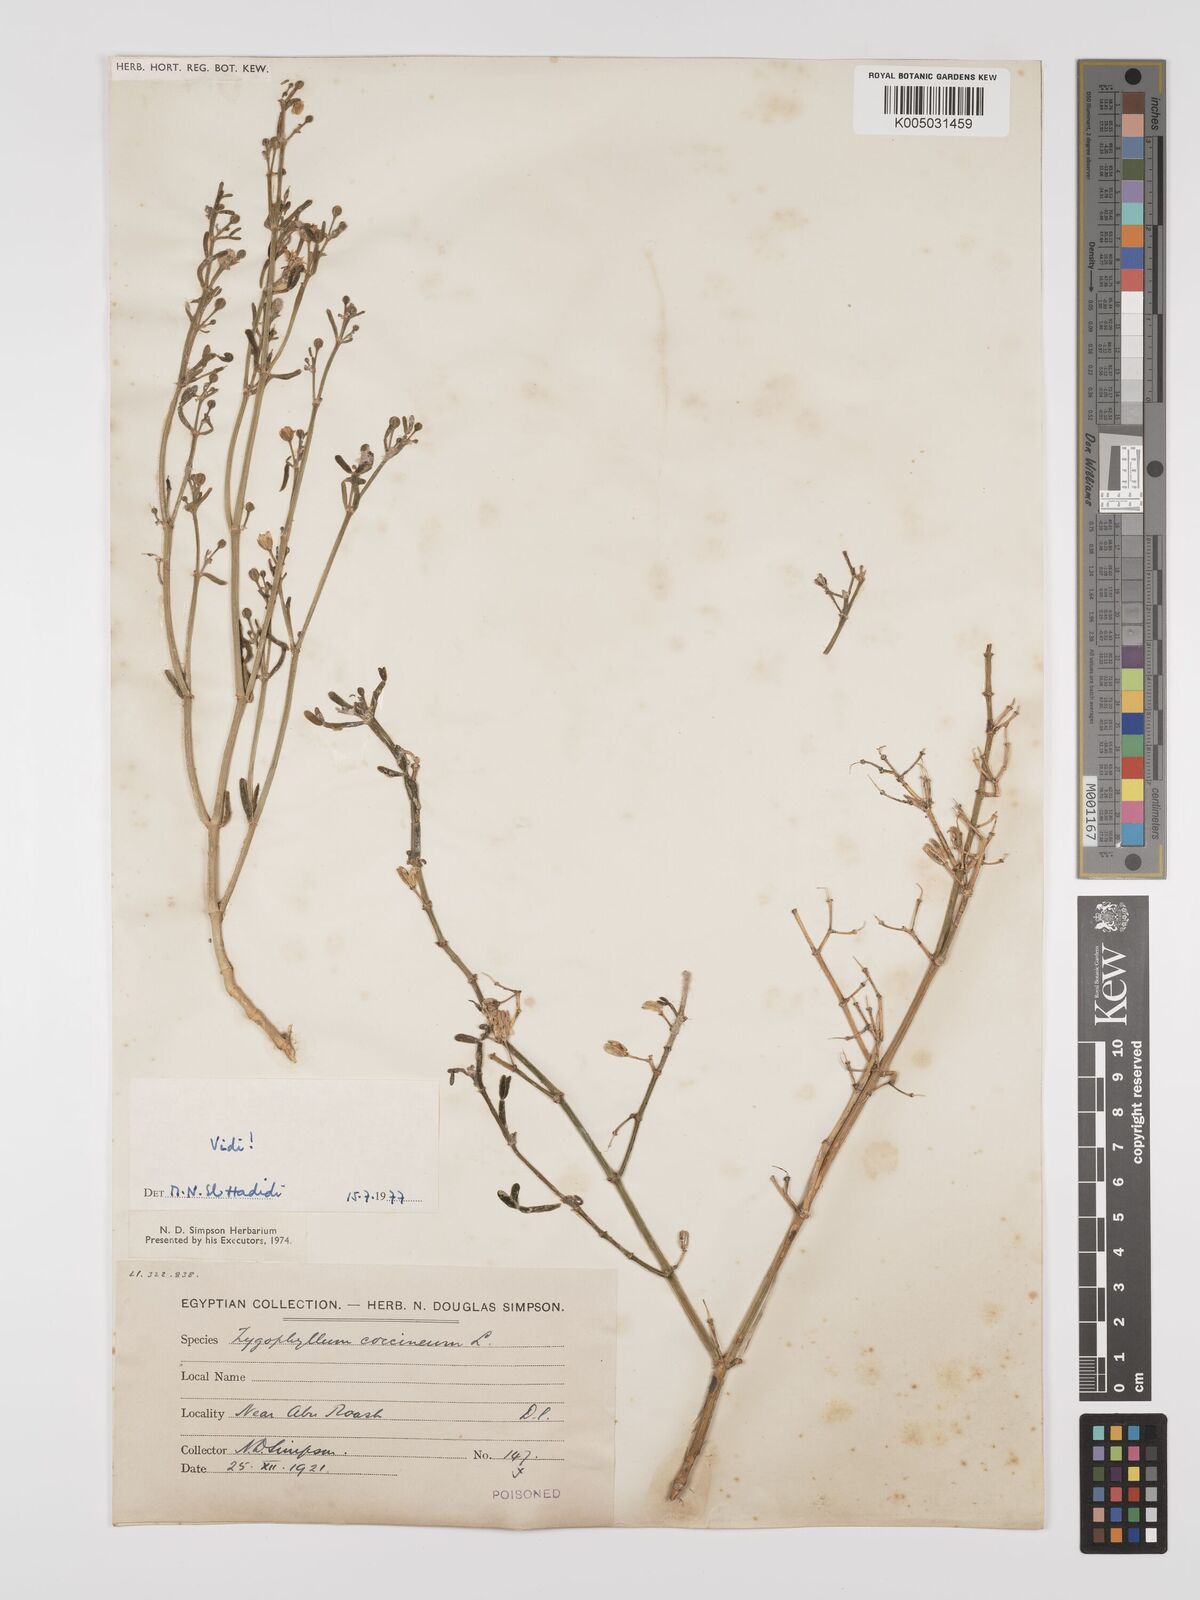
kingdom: Plantae
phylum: Tracheophyta
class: Magnoliopsida
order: Zygophyllales
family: Zygophyllaceae
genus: Zygophyllum
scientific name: Zygophyllum
